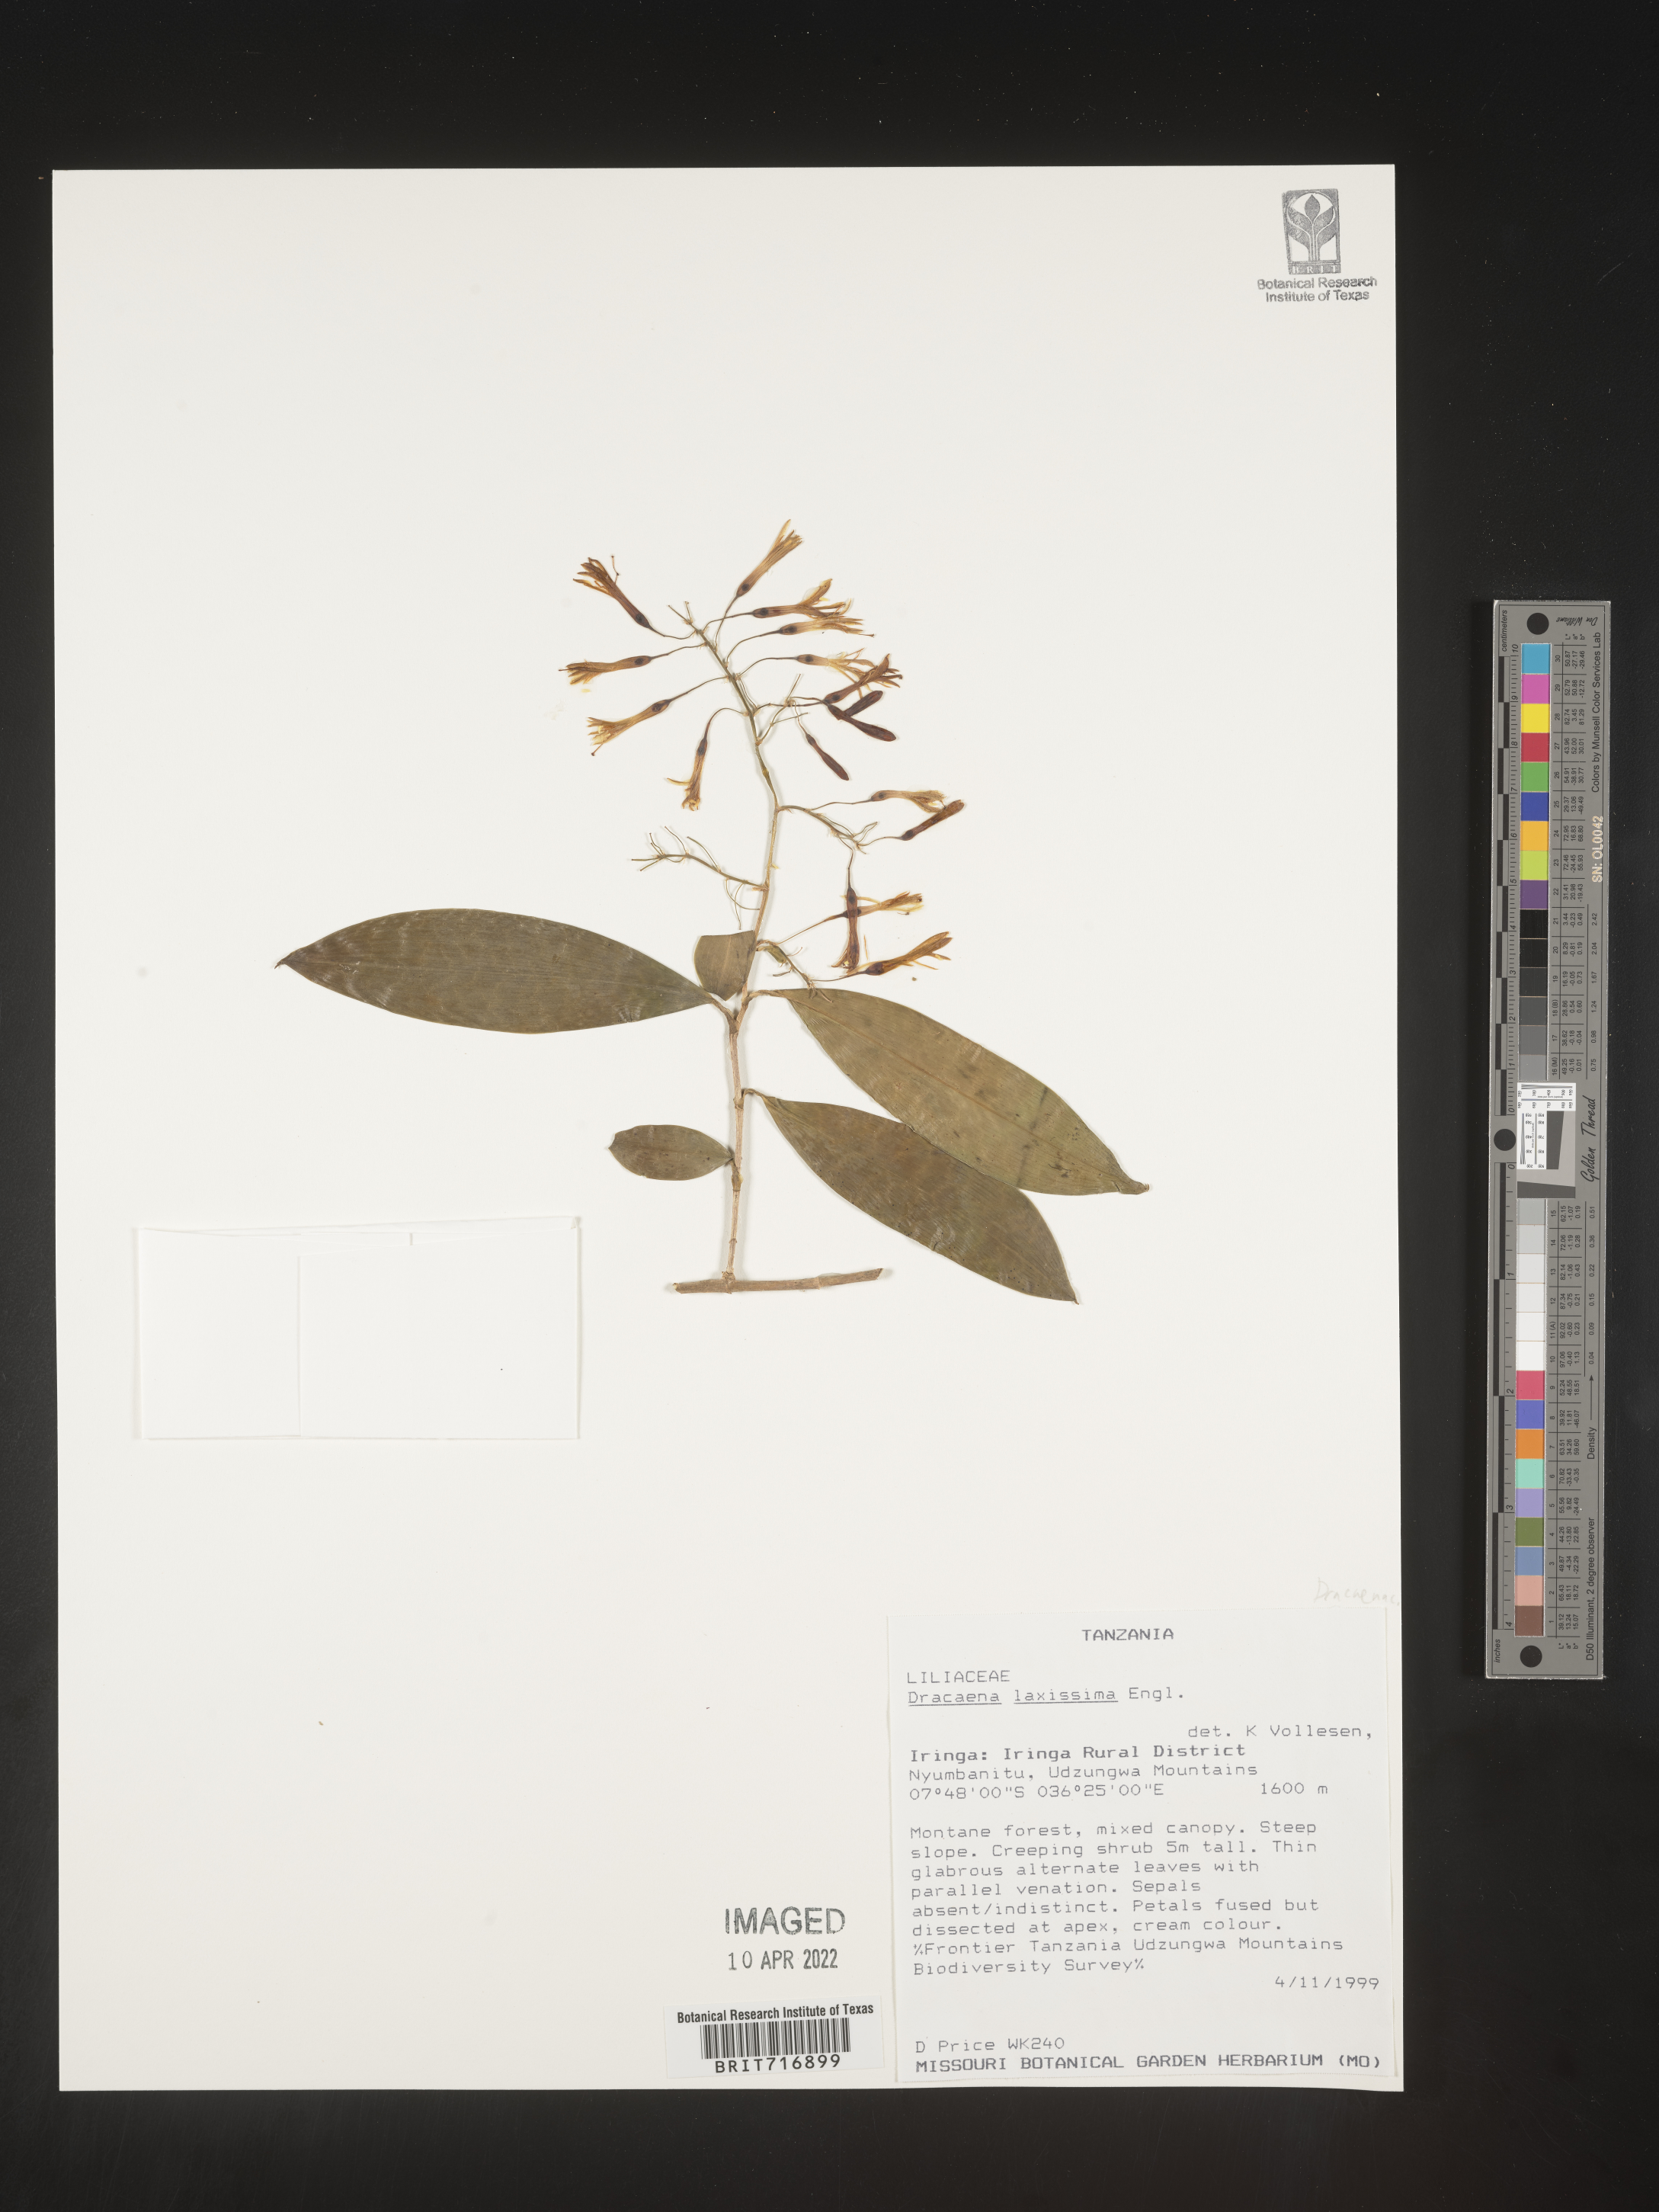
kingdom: Plantae
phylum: Tracheophyta
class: Liliopsida
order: Asparagales
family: Asparagaceae
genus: Dracaena
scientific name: Dracaena
